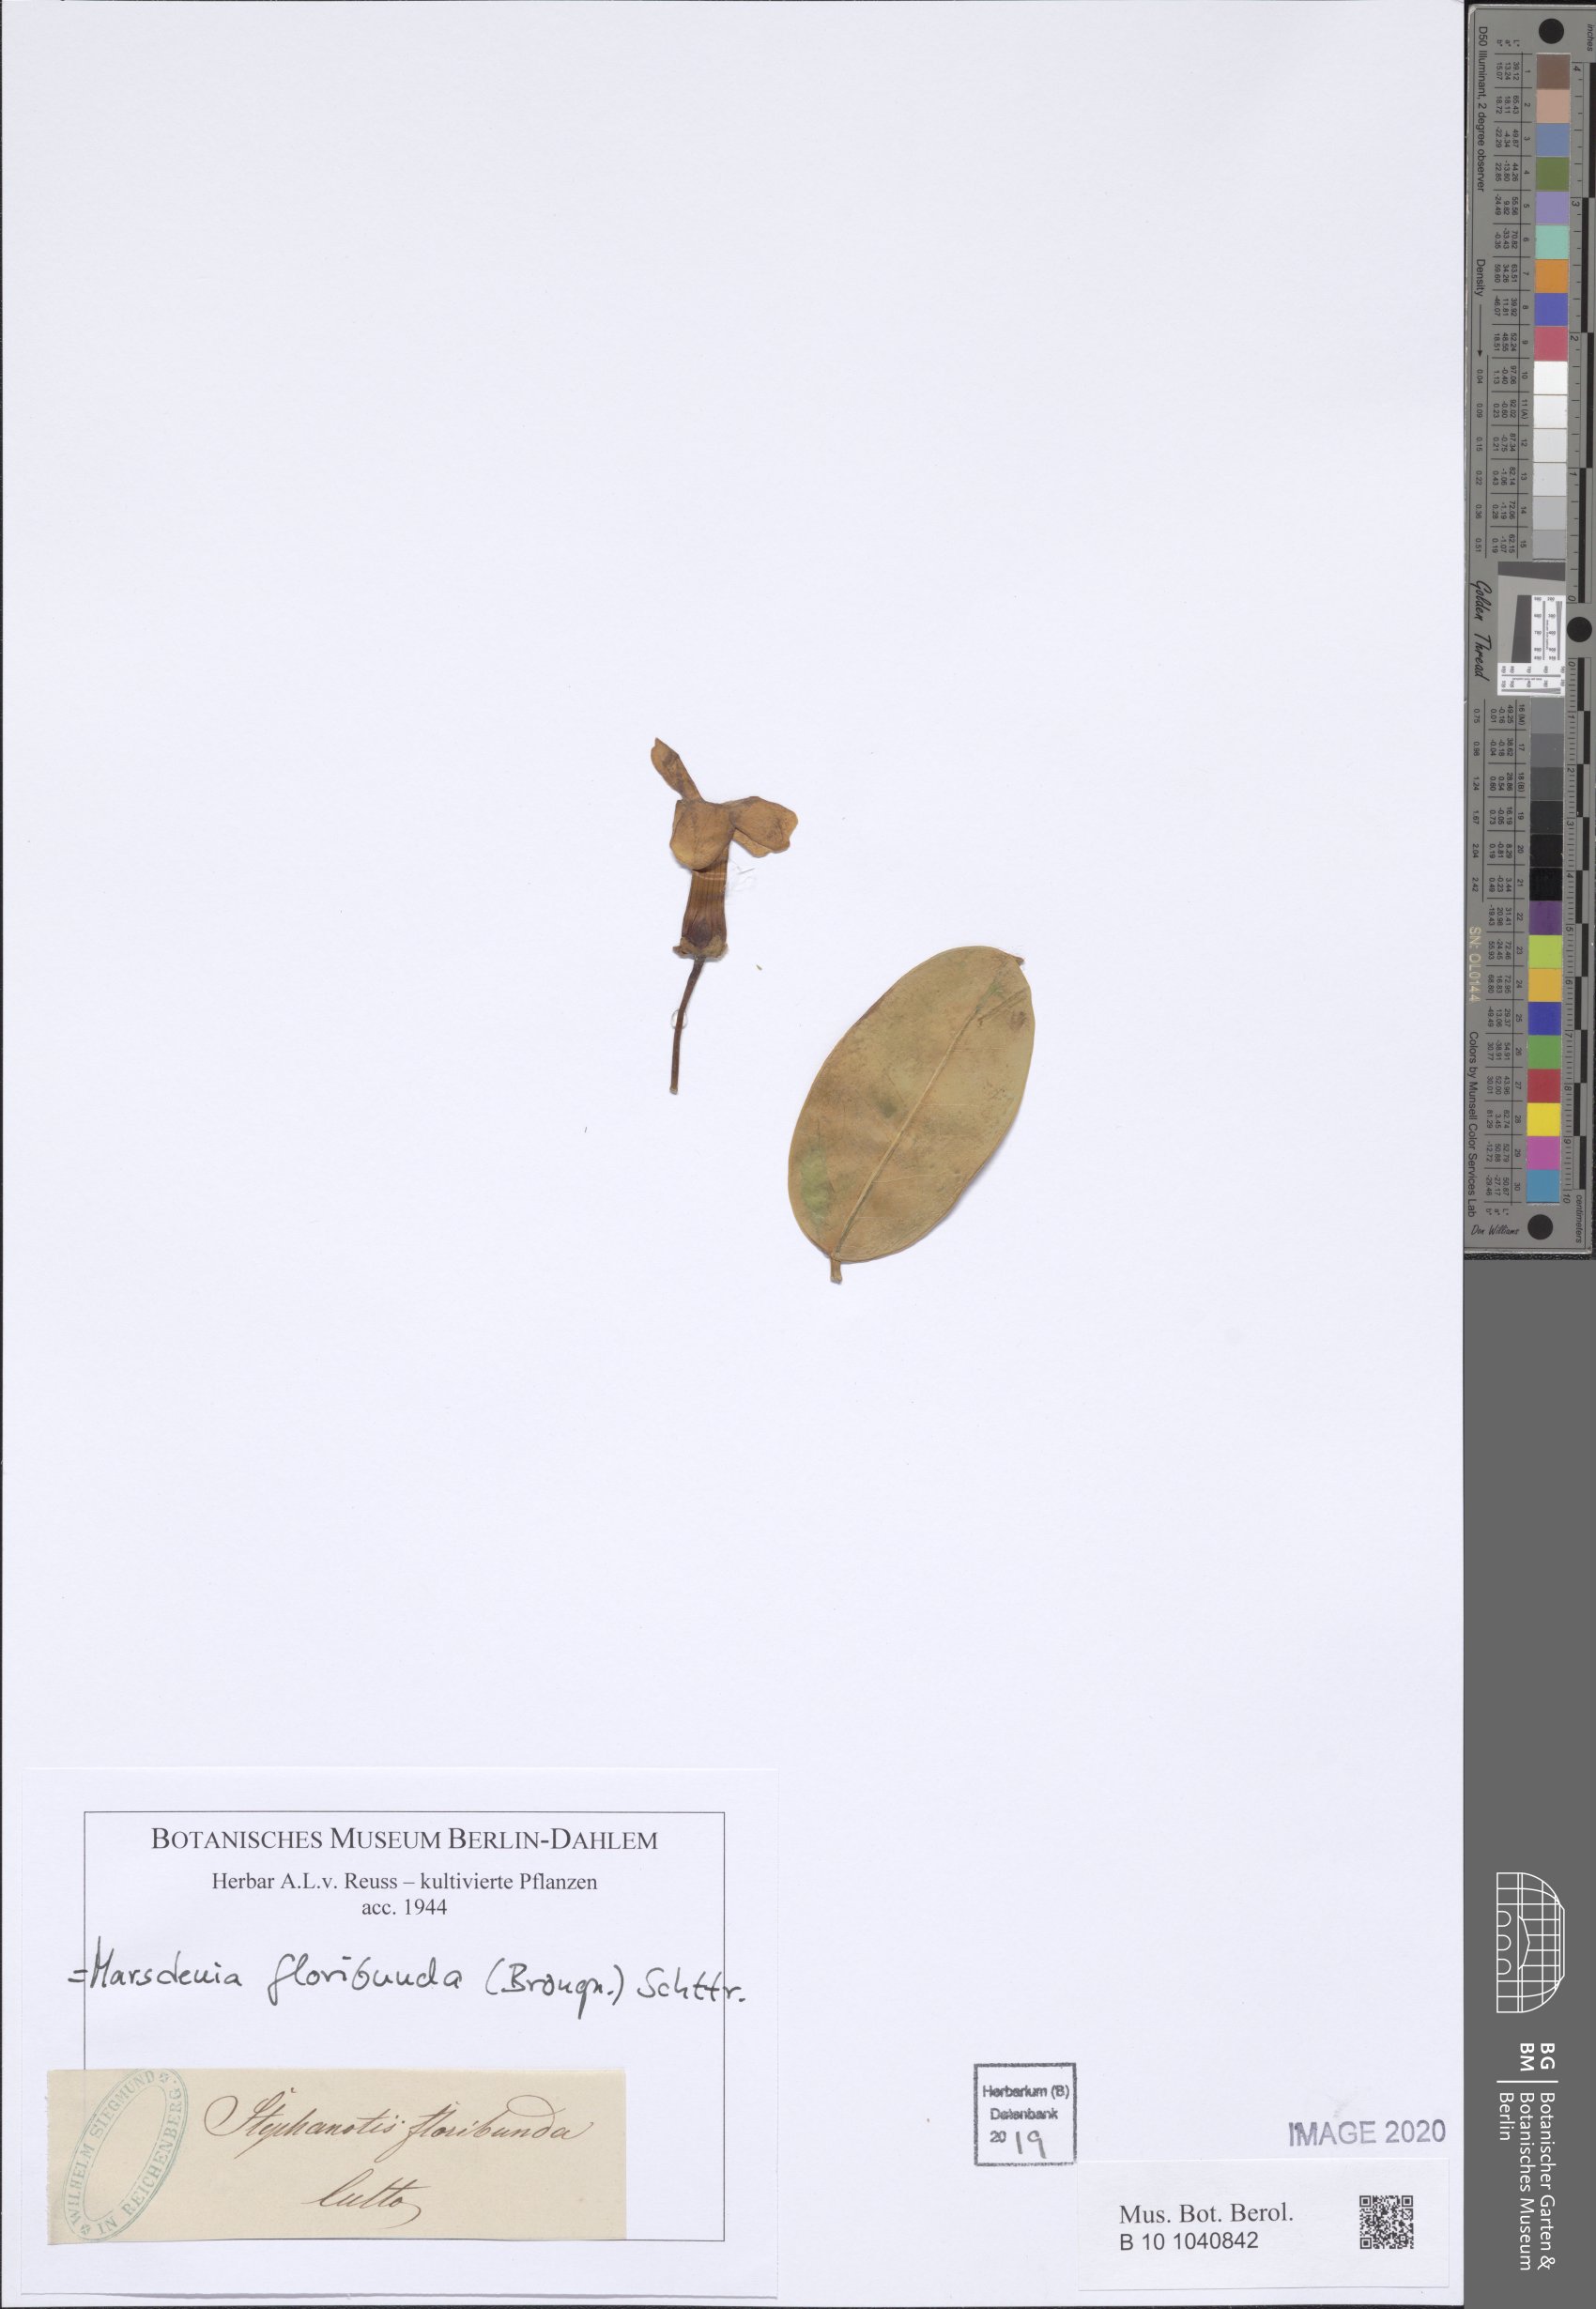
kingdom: Plantae
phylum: Tracheophyta
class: Magnoliopsida
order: Gentianales
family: Apocynaceae
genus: Stephanotis
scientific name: Stephanotis ernstmeyeri
